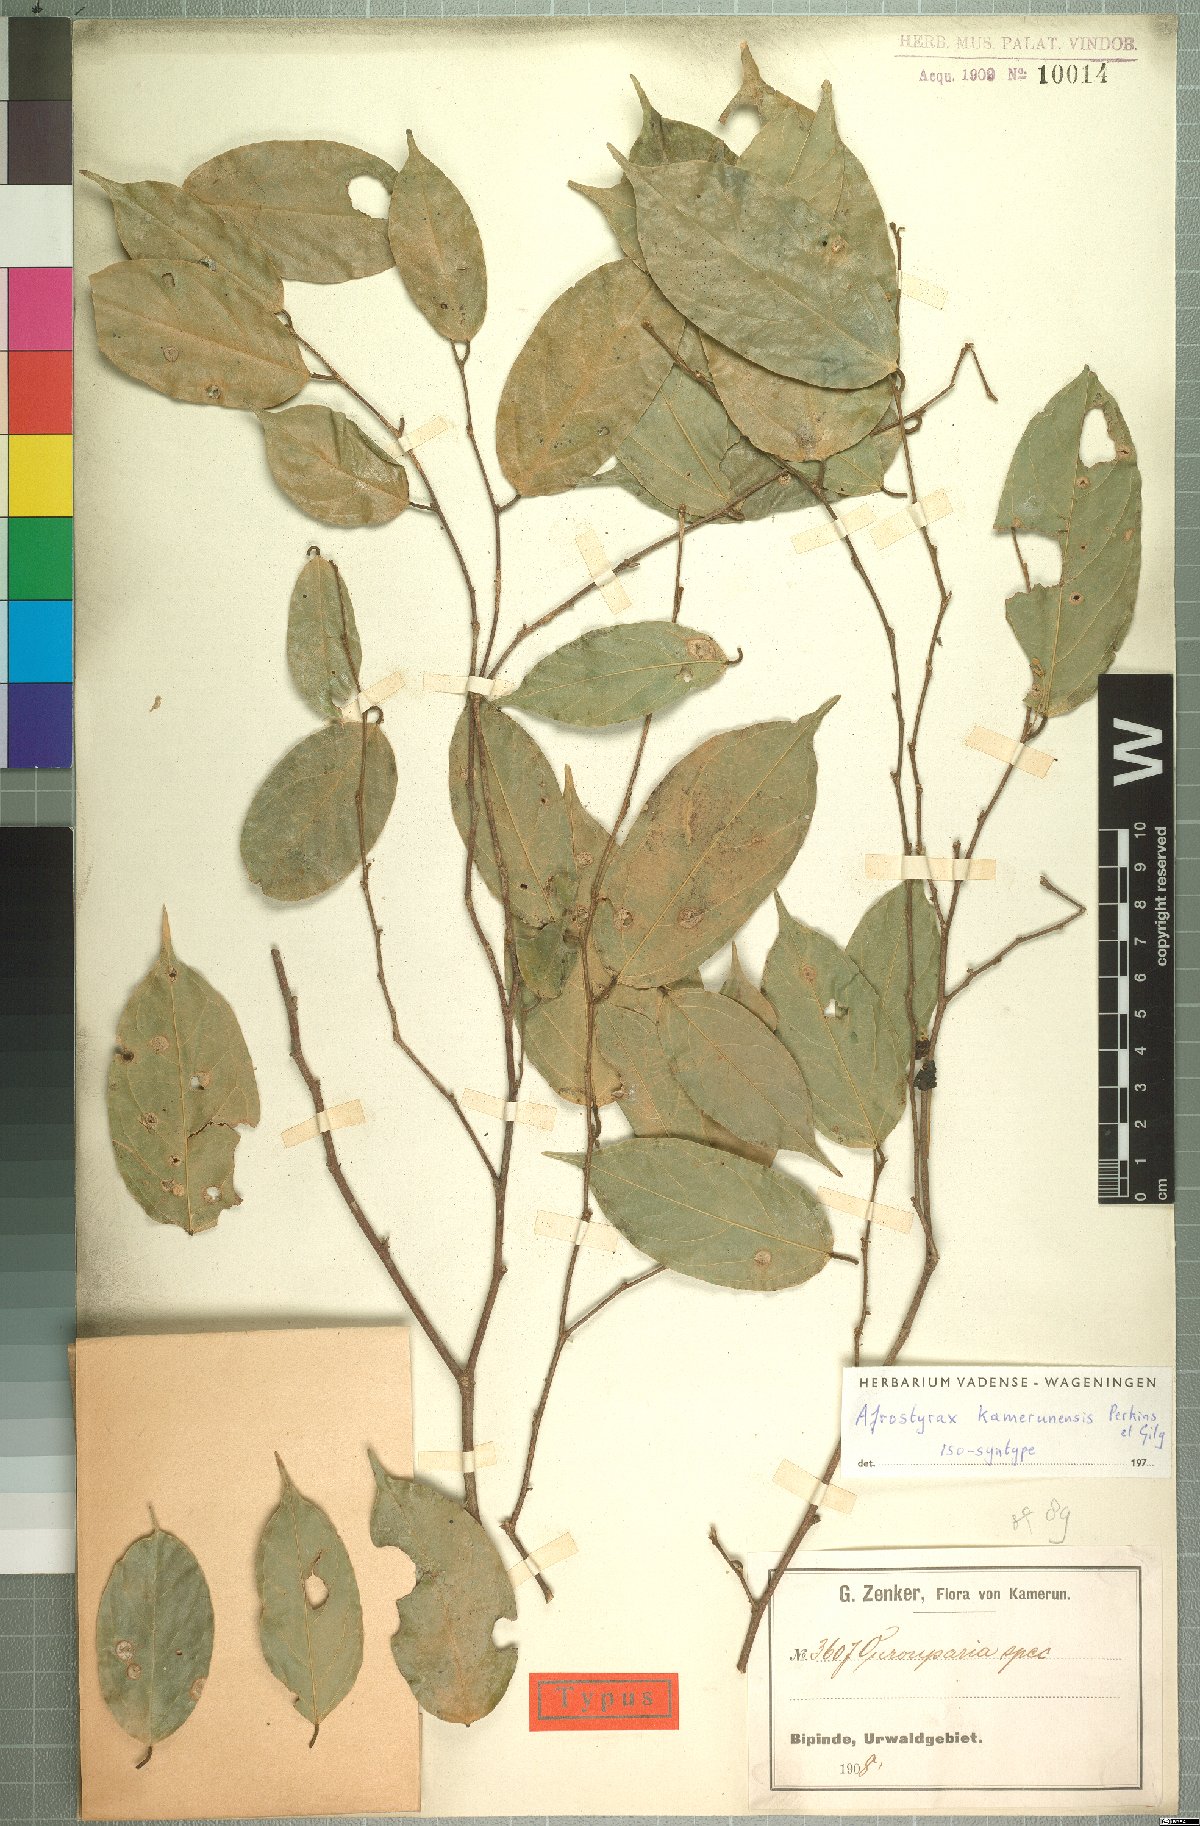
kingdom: Plantae
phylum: Tracheophyta
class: Magnoliopsida
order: Oxalidales
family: Huaceae
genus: Afrostyrax
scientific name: Afrostyrax kamerunensis
